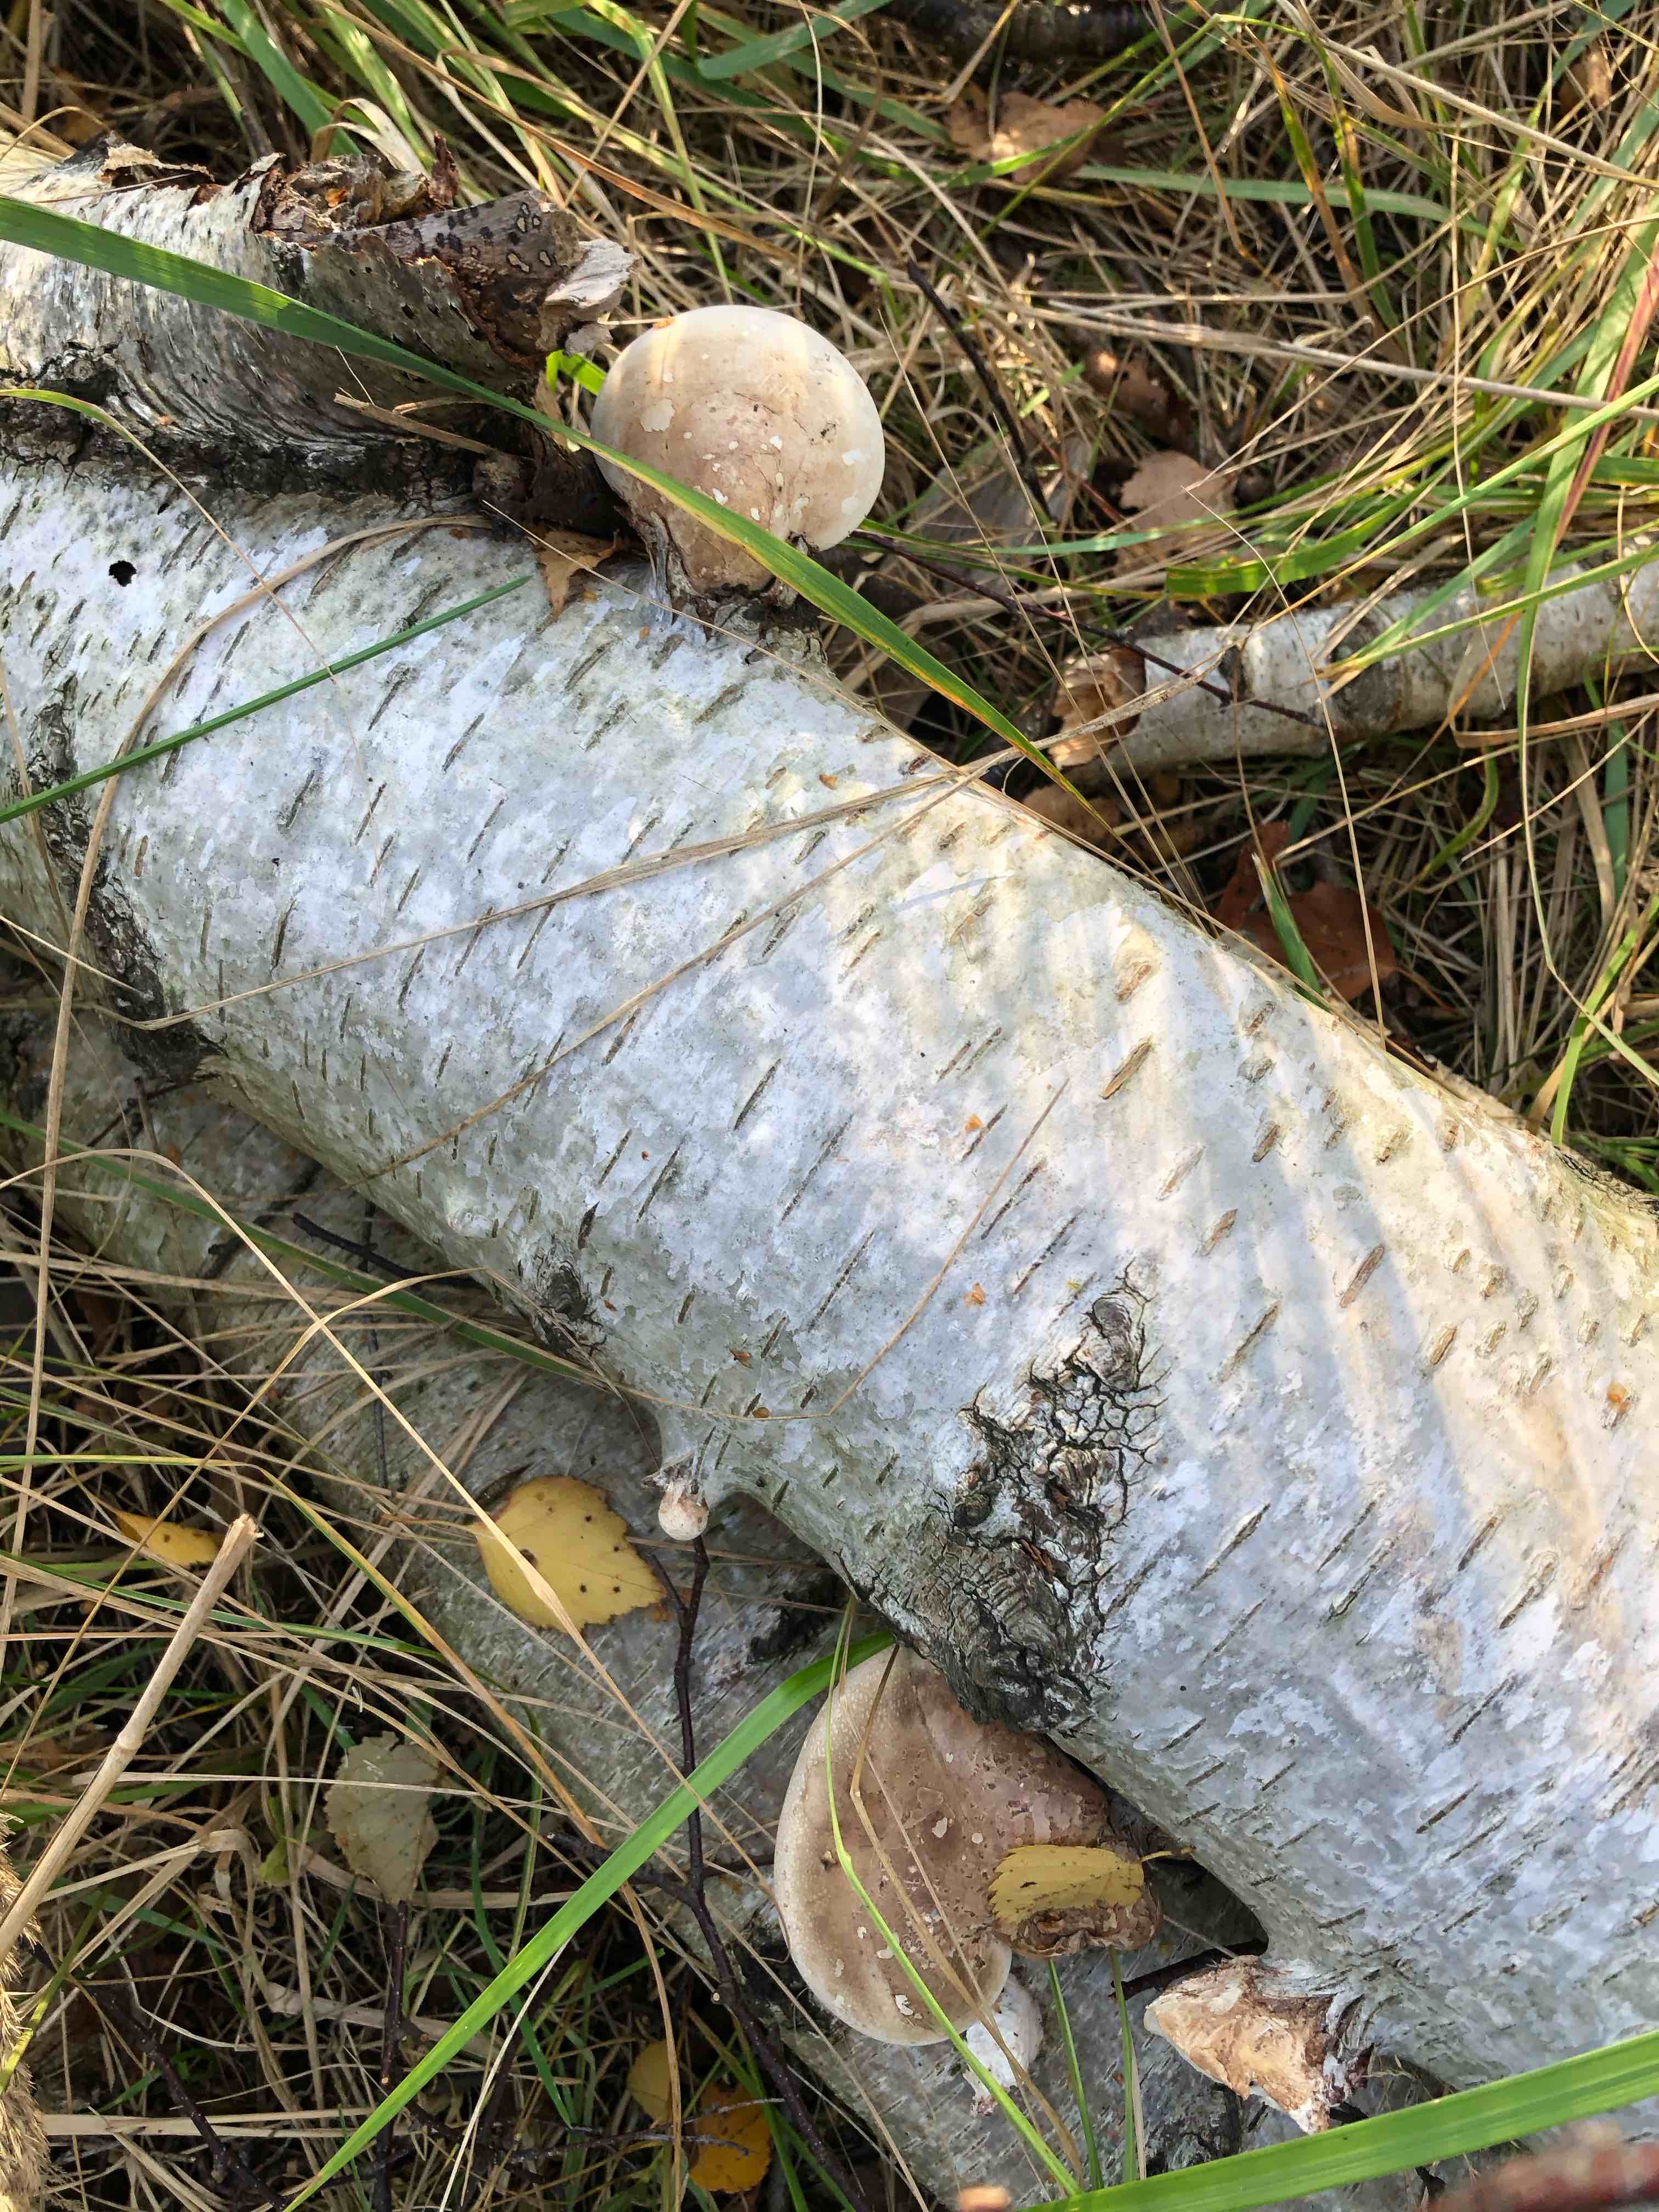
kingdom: Fungi
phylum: Basidiomycota
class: Agaricomycetes
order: Polyporales
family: Fomitopsidaceae
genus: Fomitopsis
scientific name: Fomitopsis betulina
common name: birkeporesvamp
